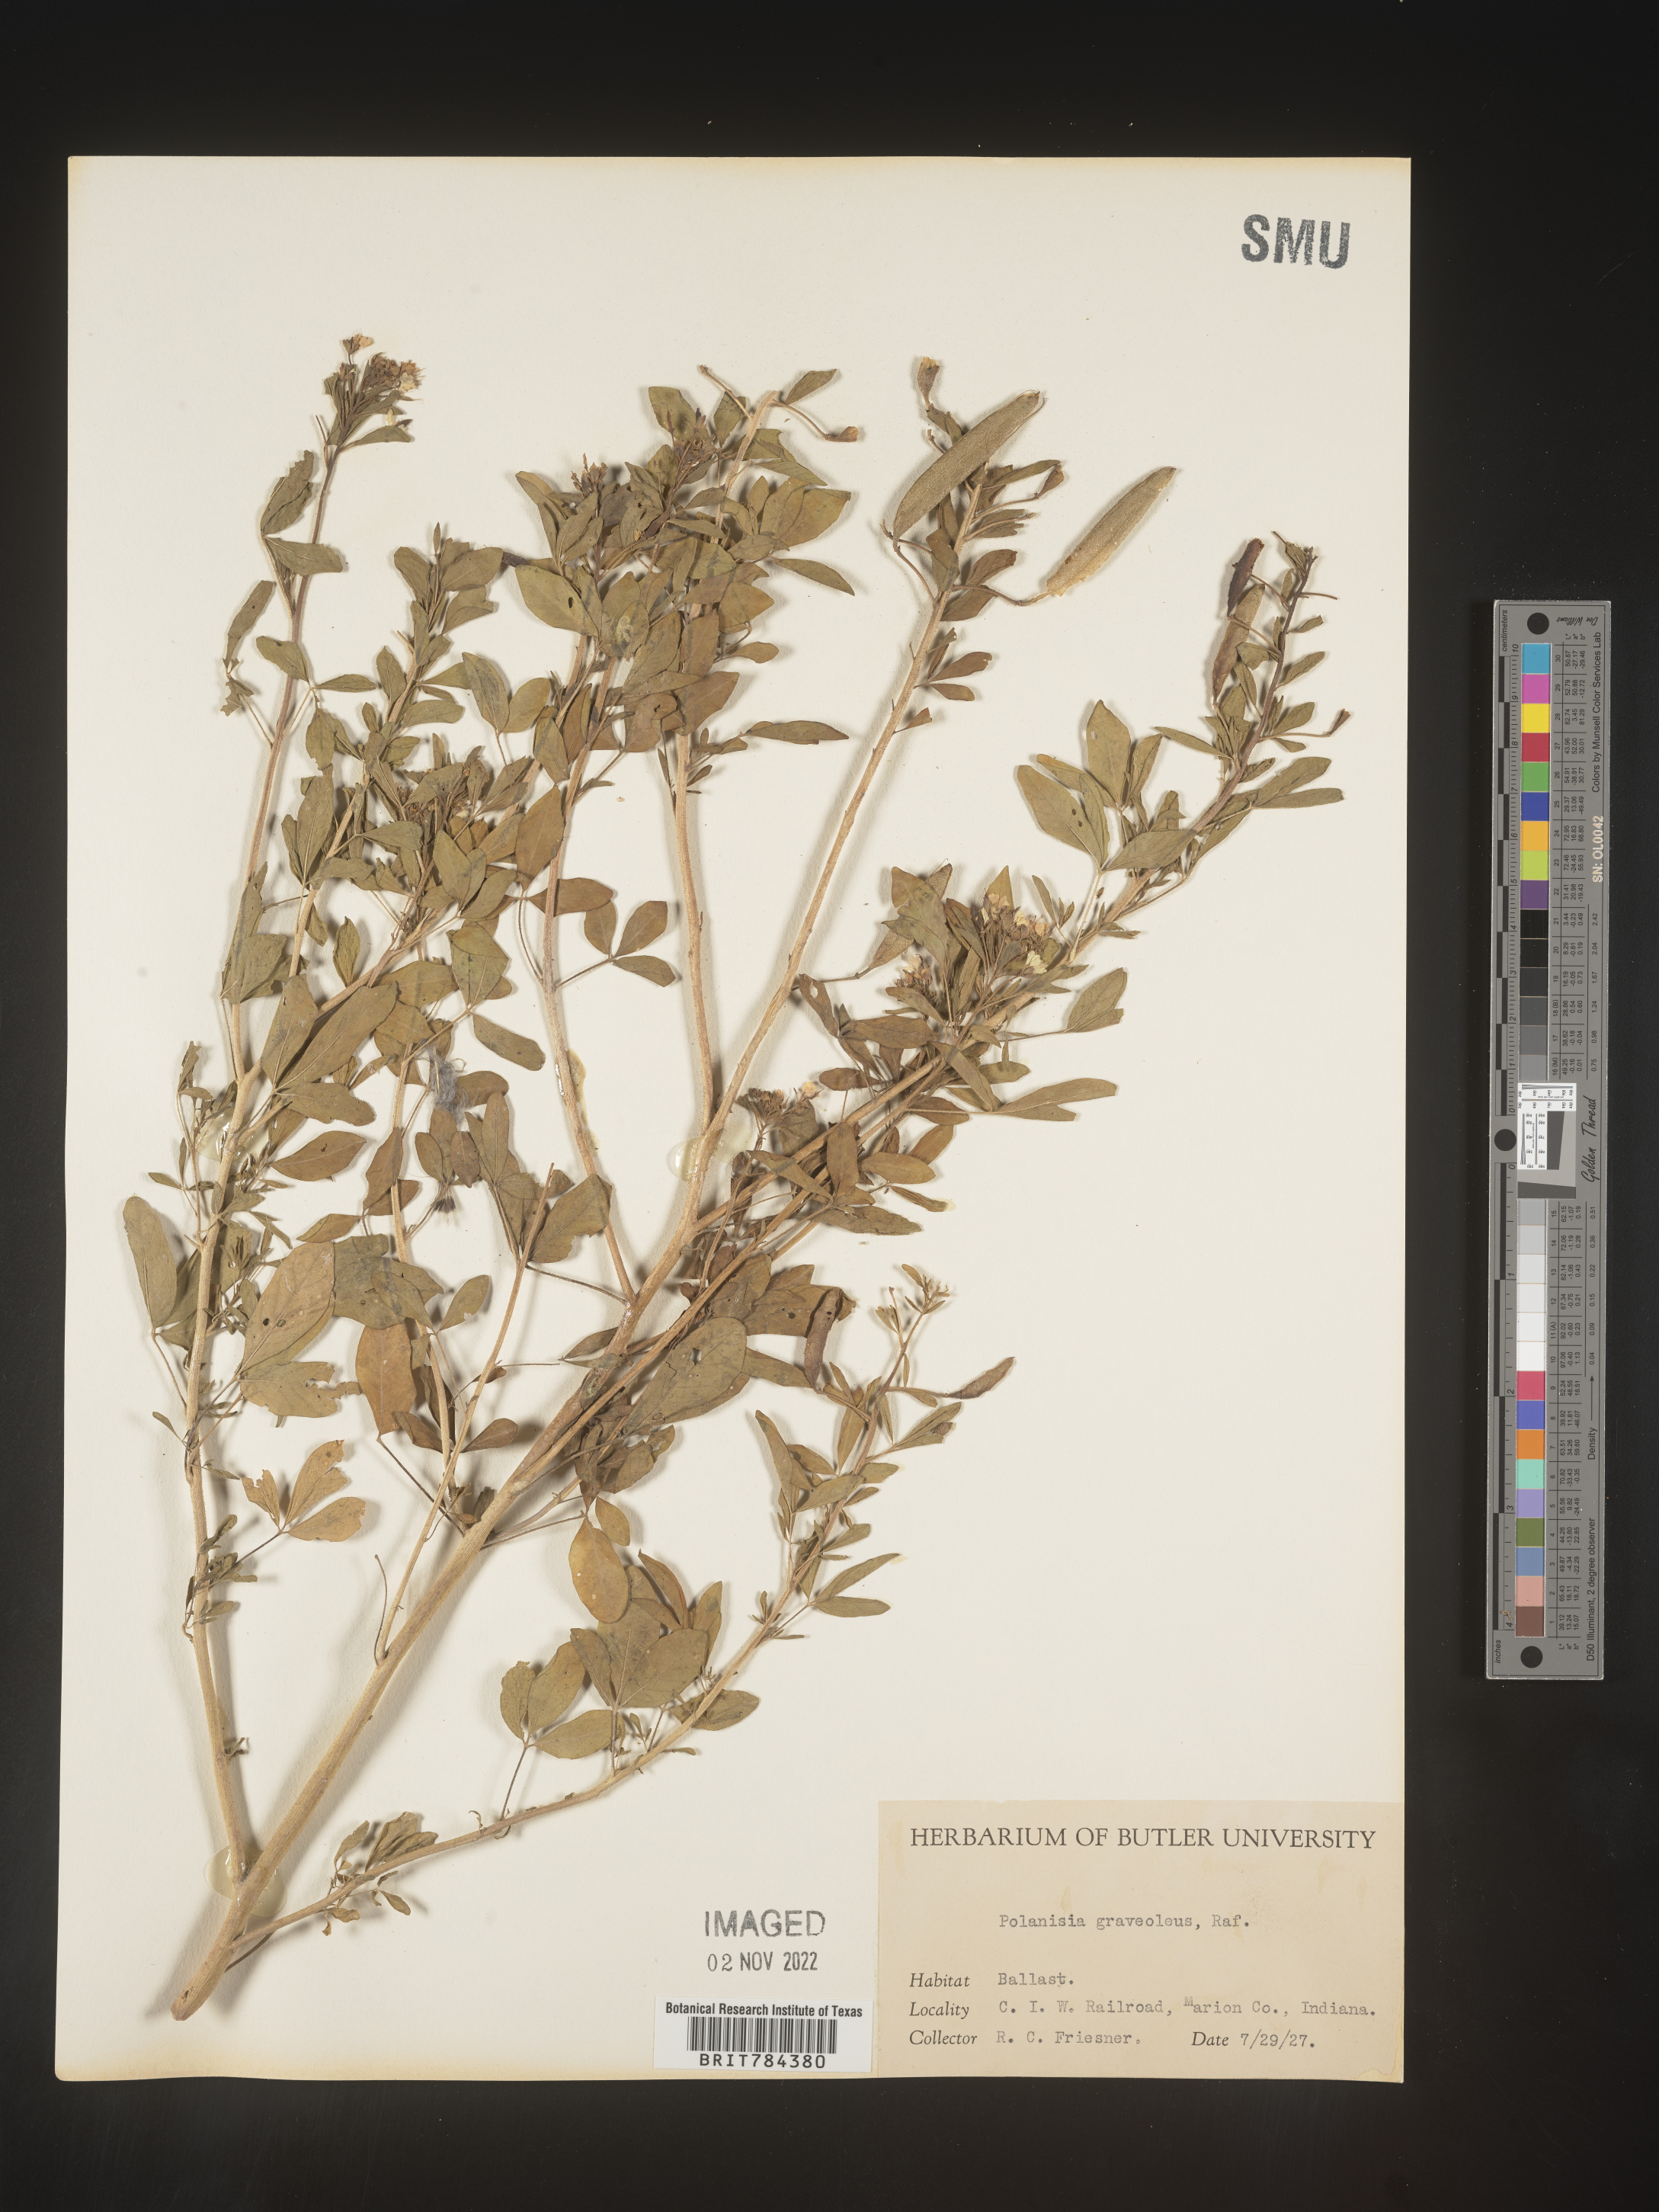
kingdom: Plantae
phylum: Tracheophyta
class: Magnoliopsida
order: Brassicales
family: Cleomaceae
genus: Polanisia
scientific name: Polanisia dodecandra
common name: Clammyweed
